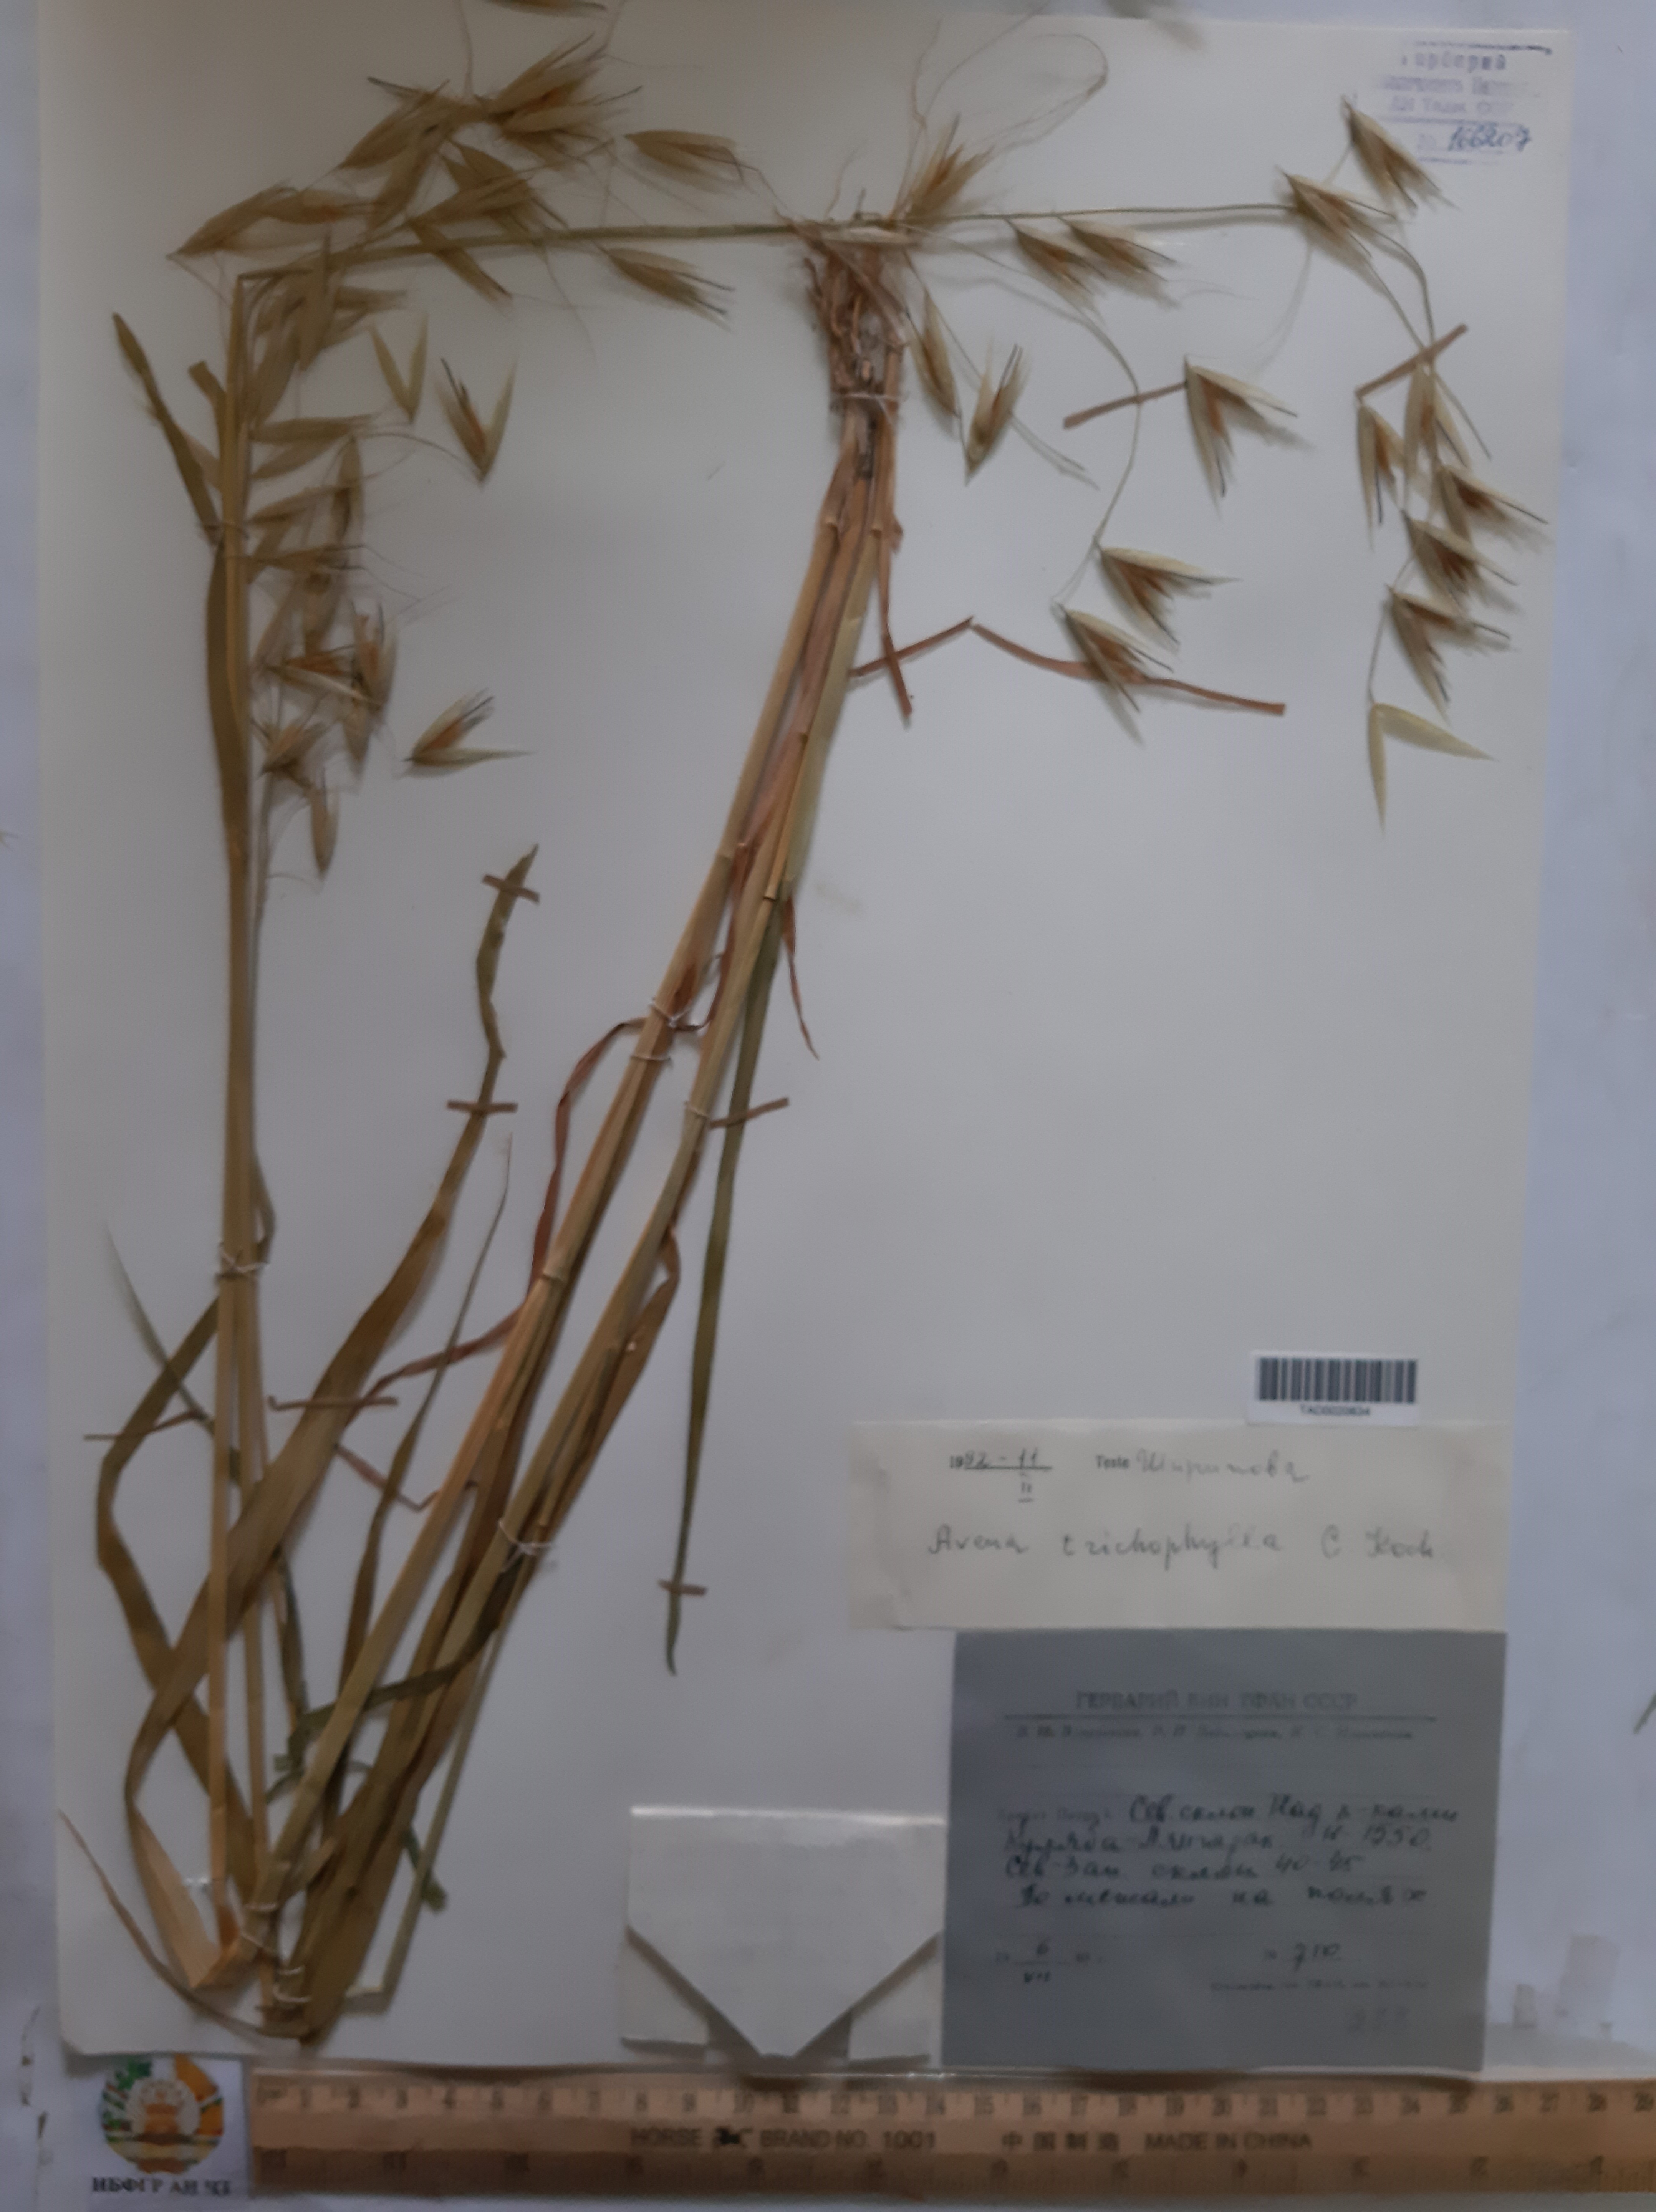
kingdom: Plantae
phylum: Tracheophyta
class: Liliopsida
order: Poales
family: Poaceae
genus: Avena
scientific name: Avena sterilis
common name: Animated oat
